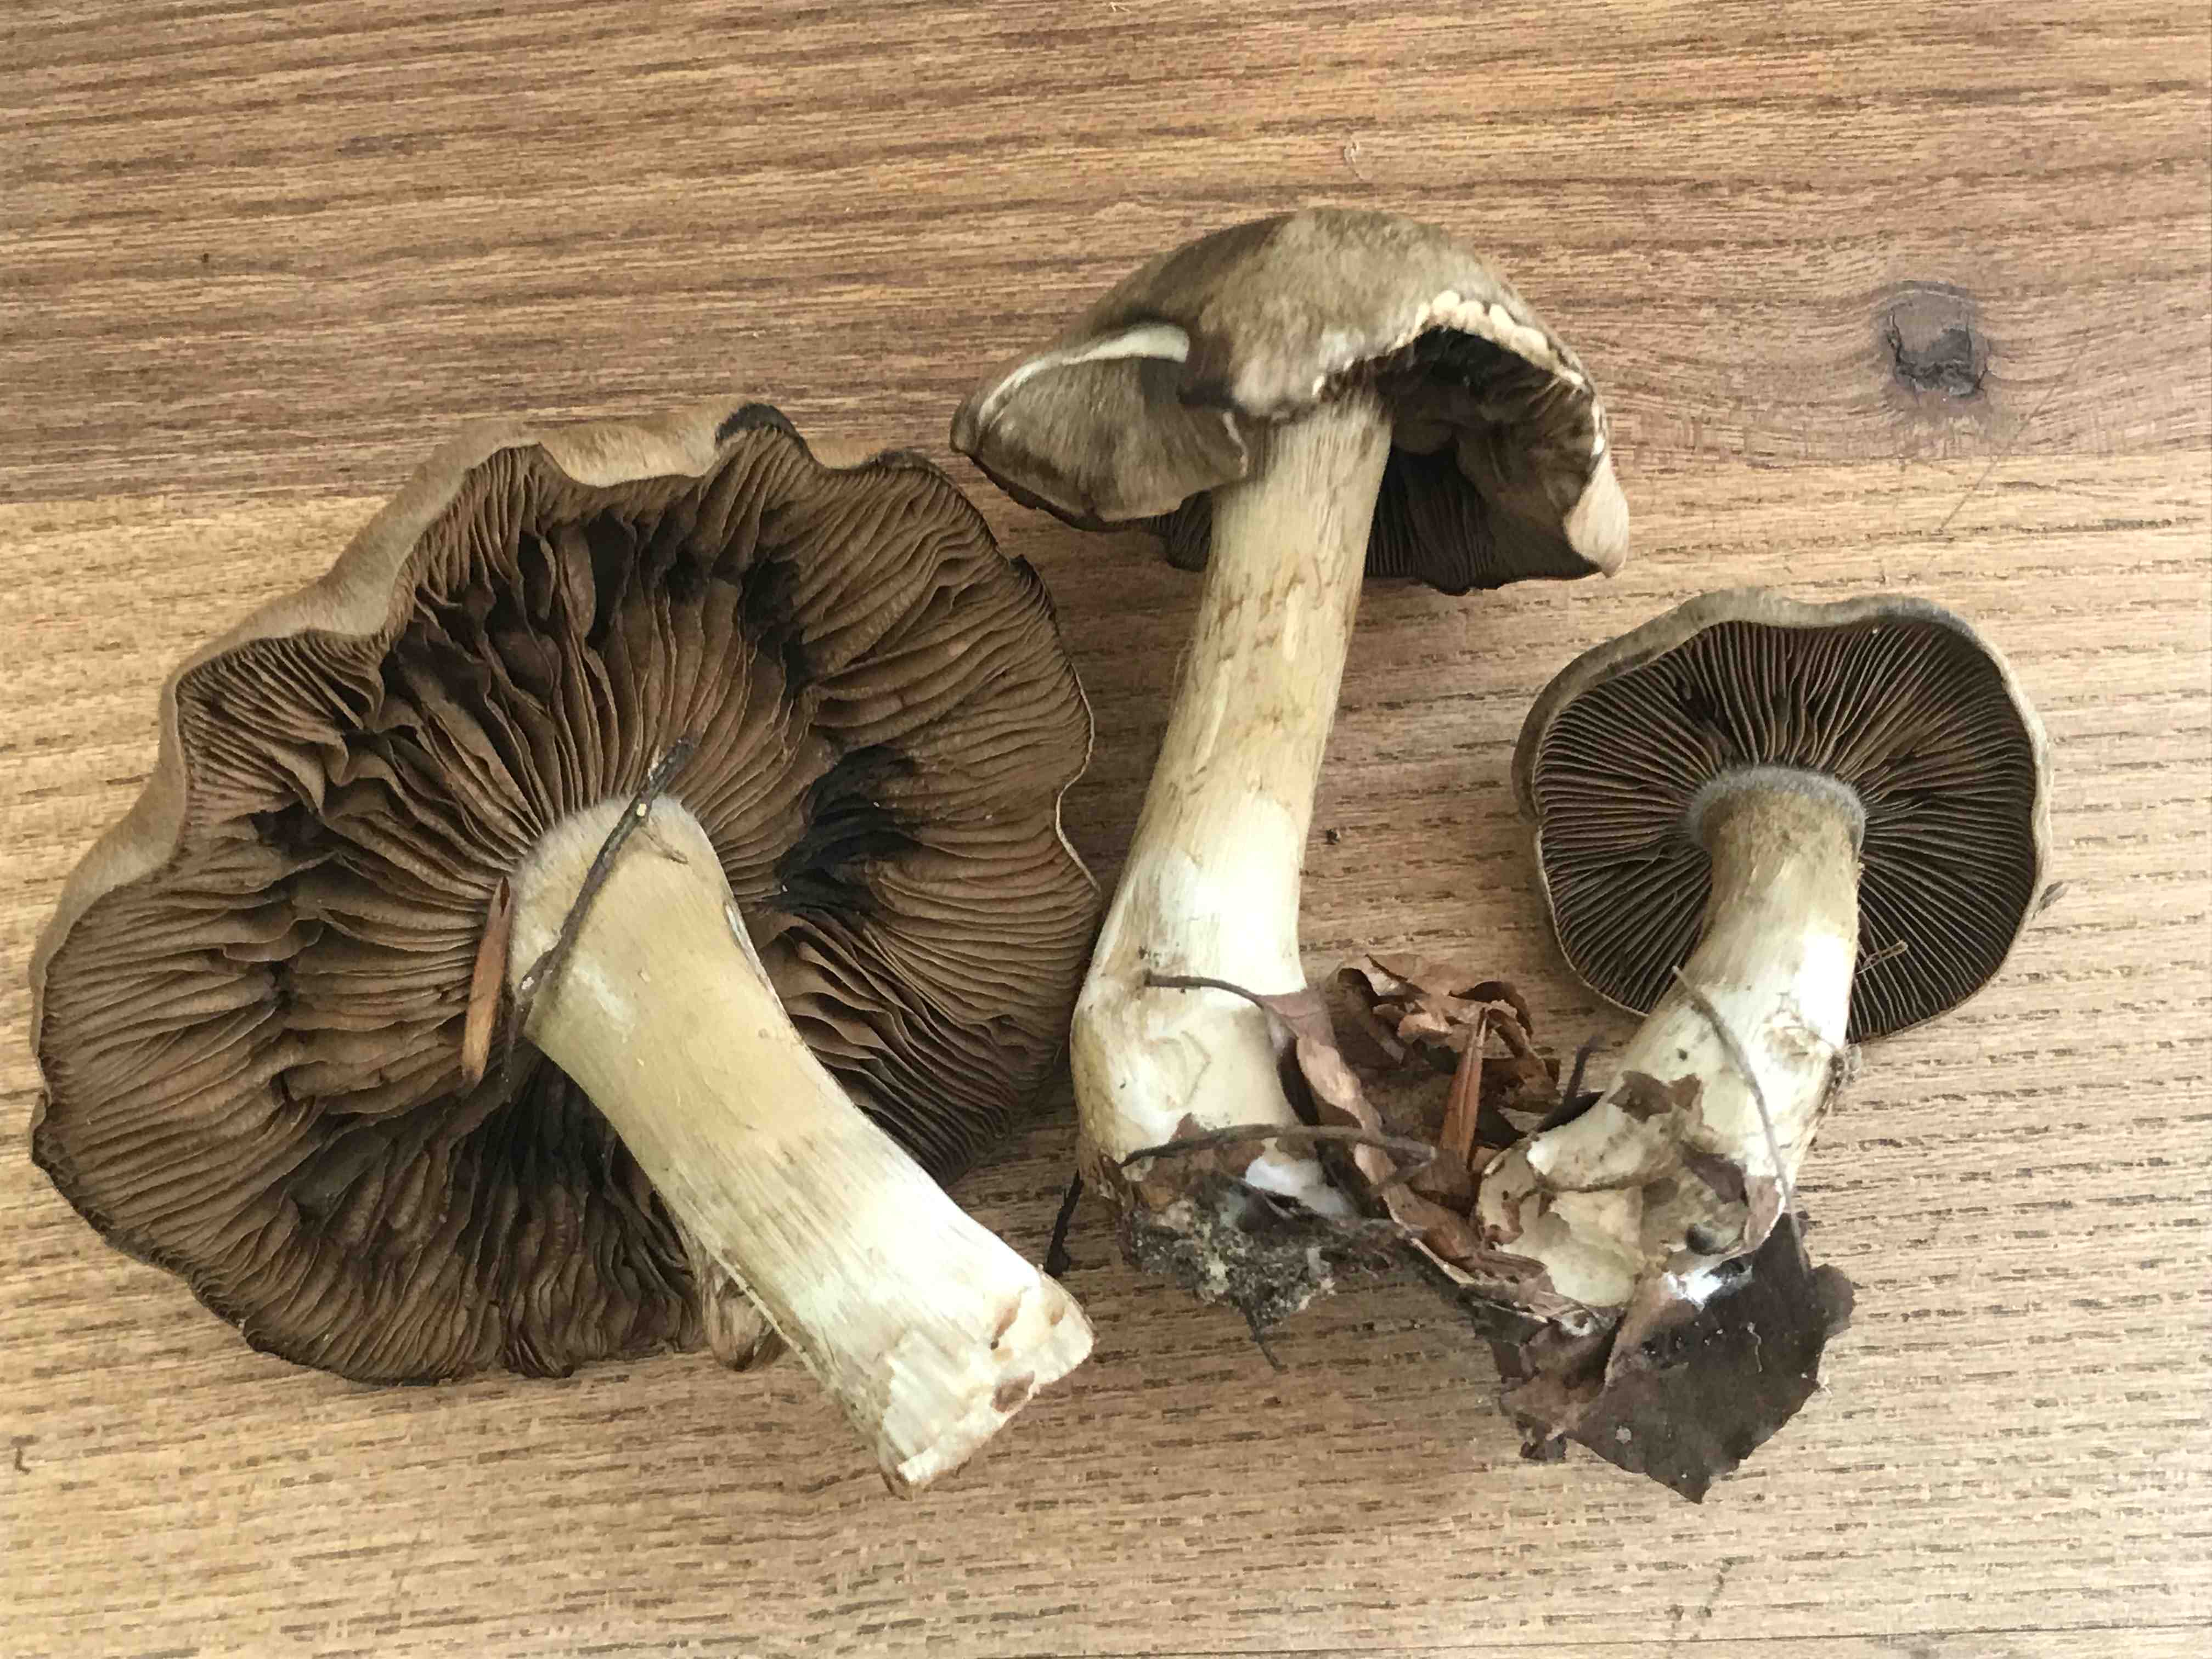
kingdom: Fungi
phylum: Basidiomycota
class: Agaricomycetes
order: Agaricales
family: Cortinariaceae
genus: Cortinarius
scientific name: Cortinarius
